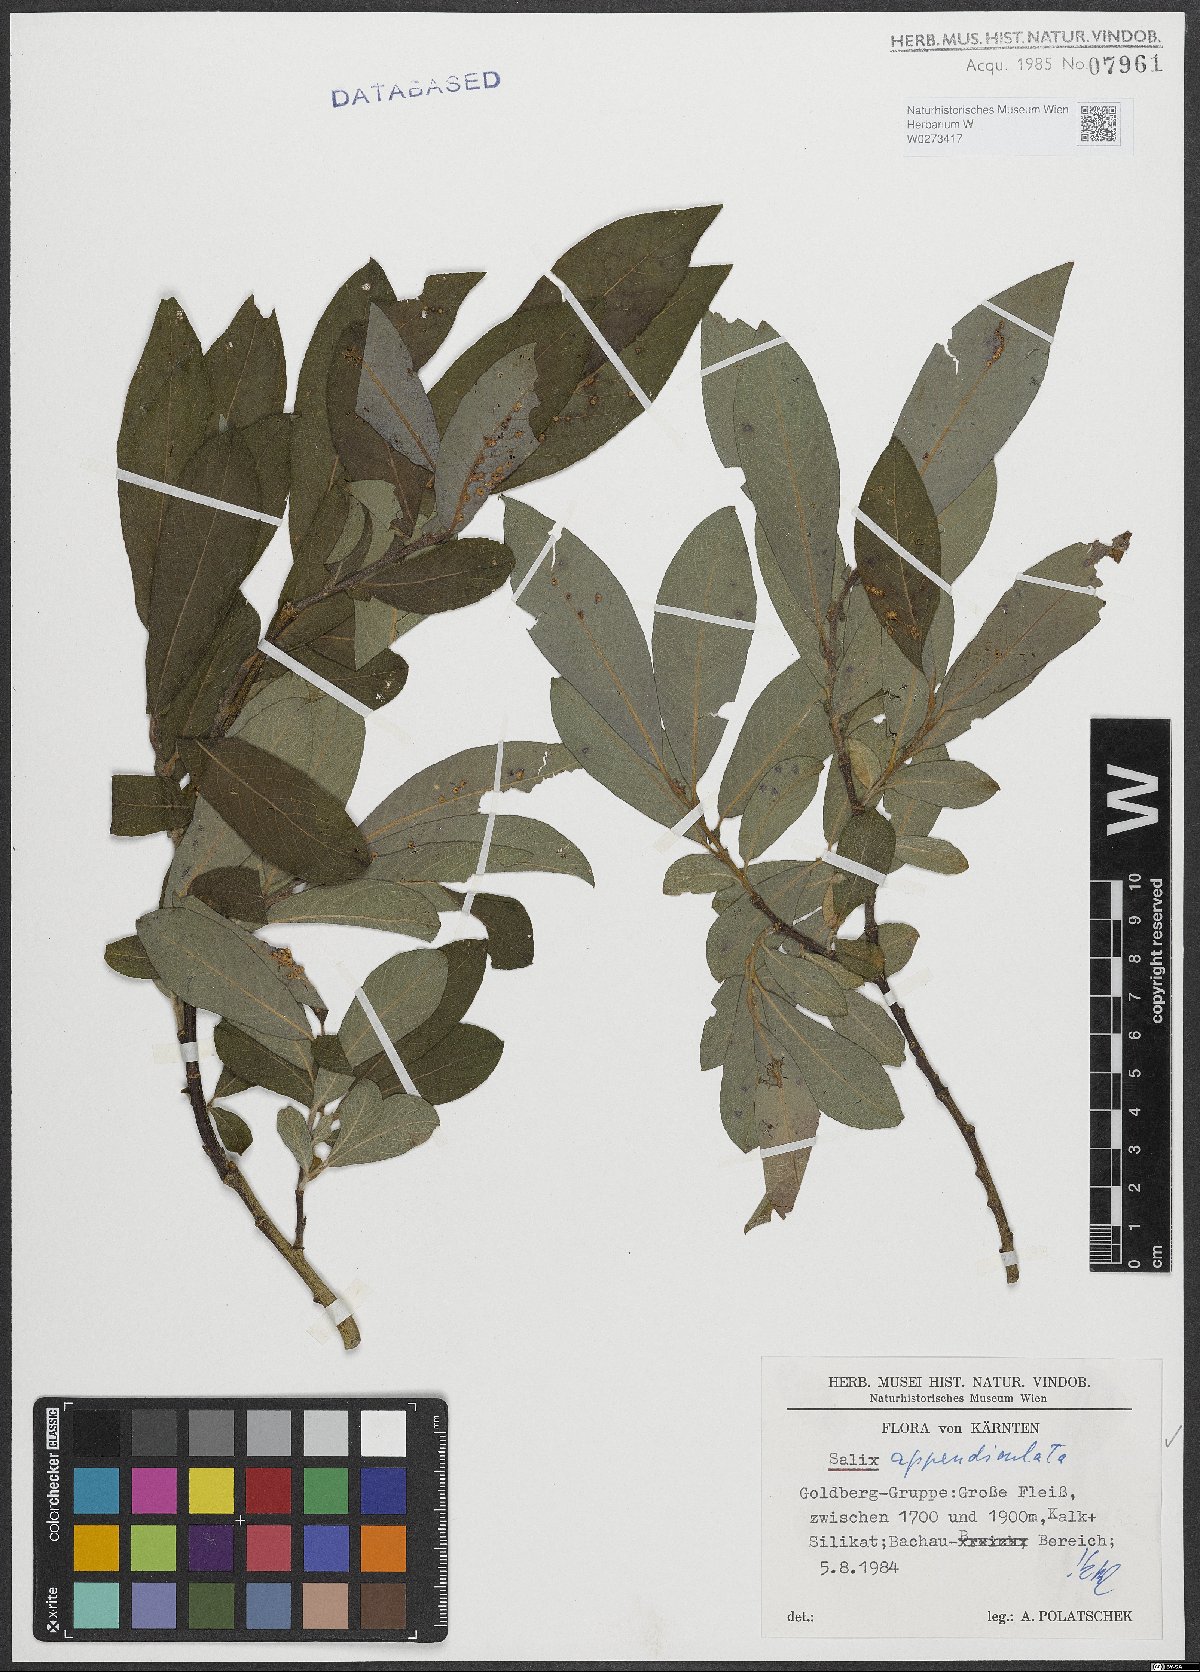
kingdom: Plantae
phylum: Tracheophyta
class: Magnoliopsida
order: Malpighiales
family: Salicaceae
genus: Salix
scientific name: Salix appendiculata
